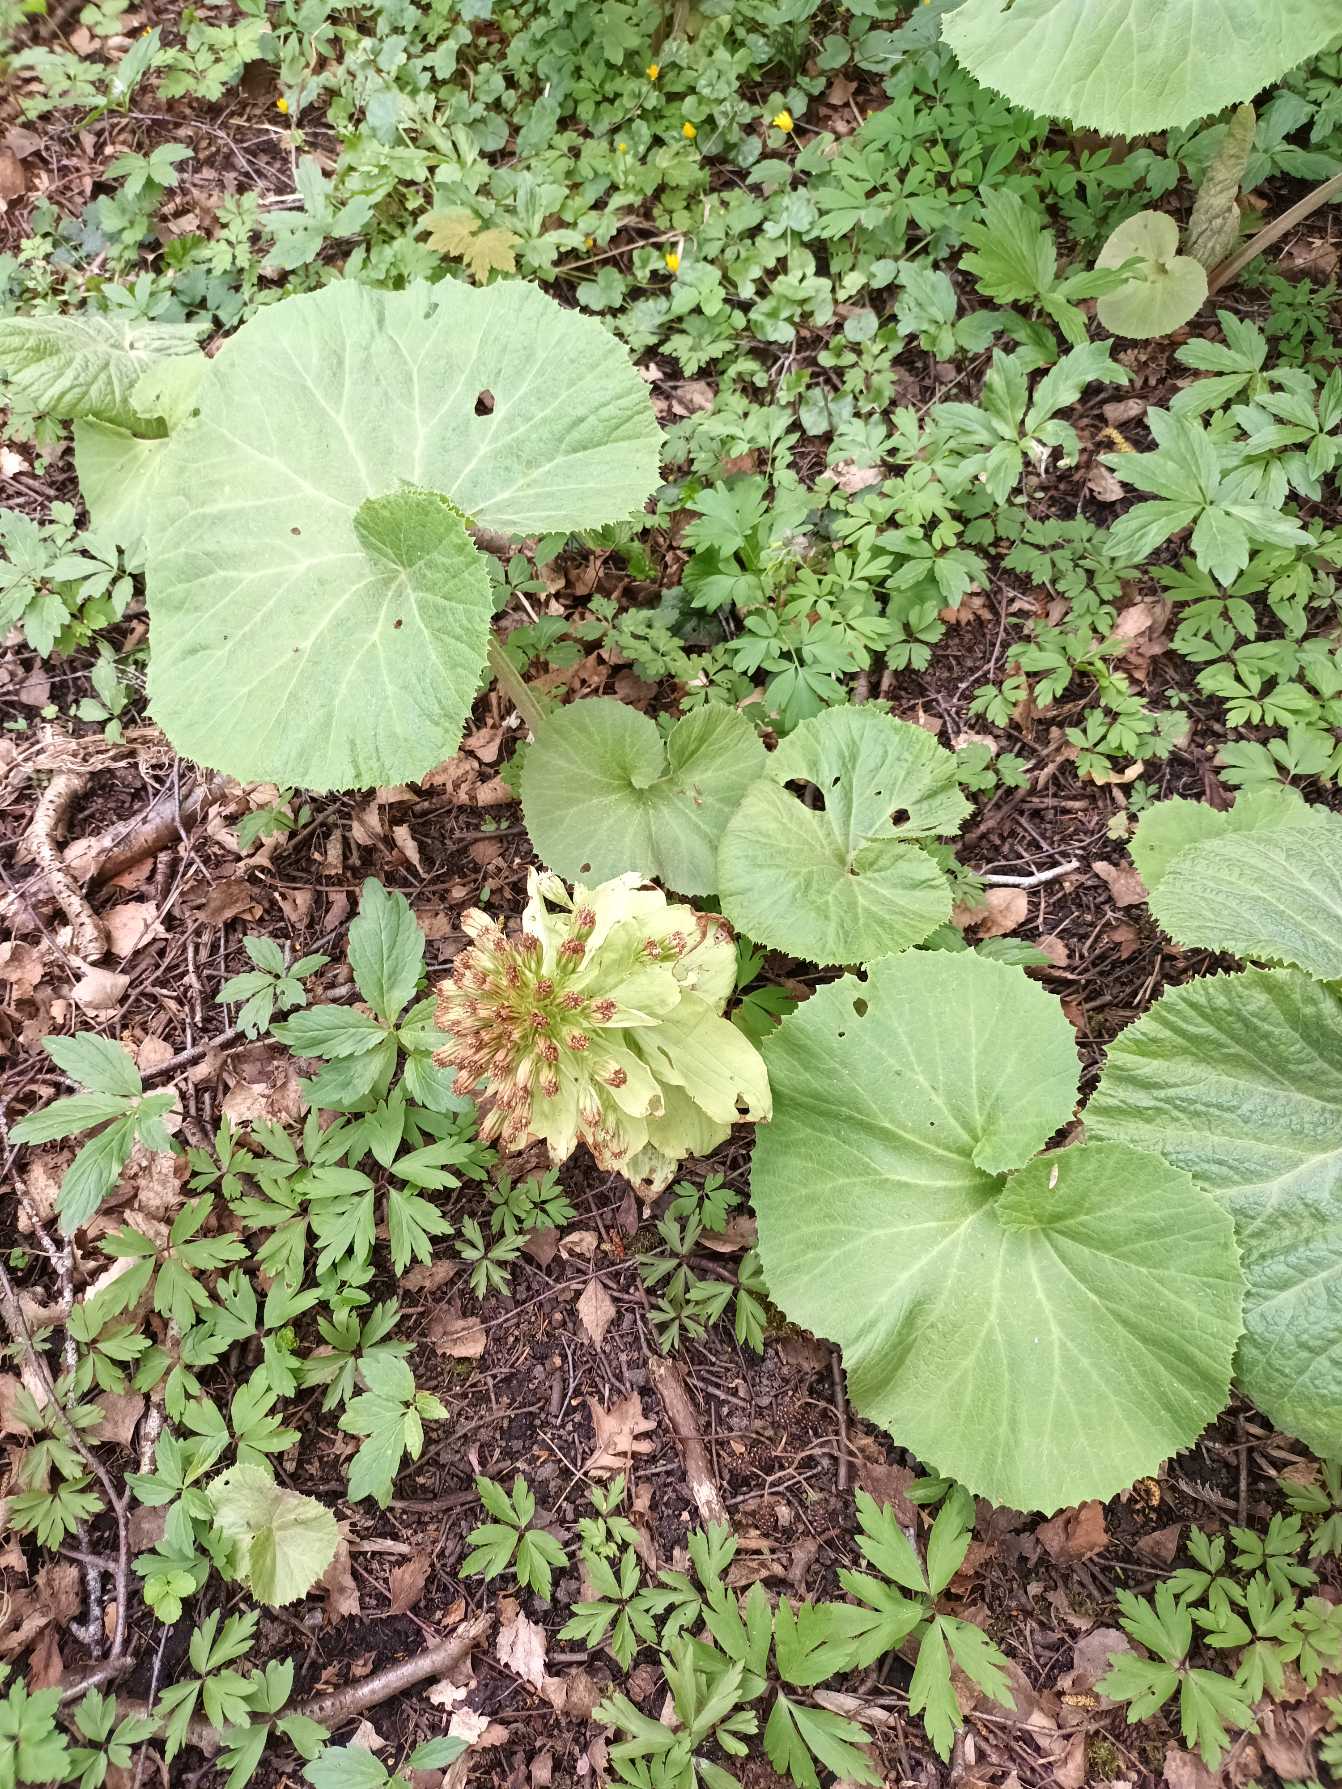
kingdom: Plantae
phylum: Tracheophyta
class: Magnoliopsida
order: Asterales
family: Asteraceae
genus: Petasites
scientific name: Petasites japonicus
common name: Japansk hestehov
